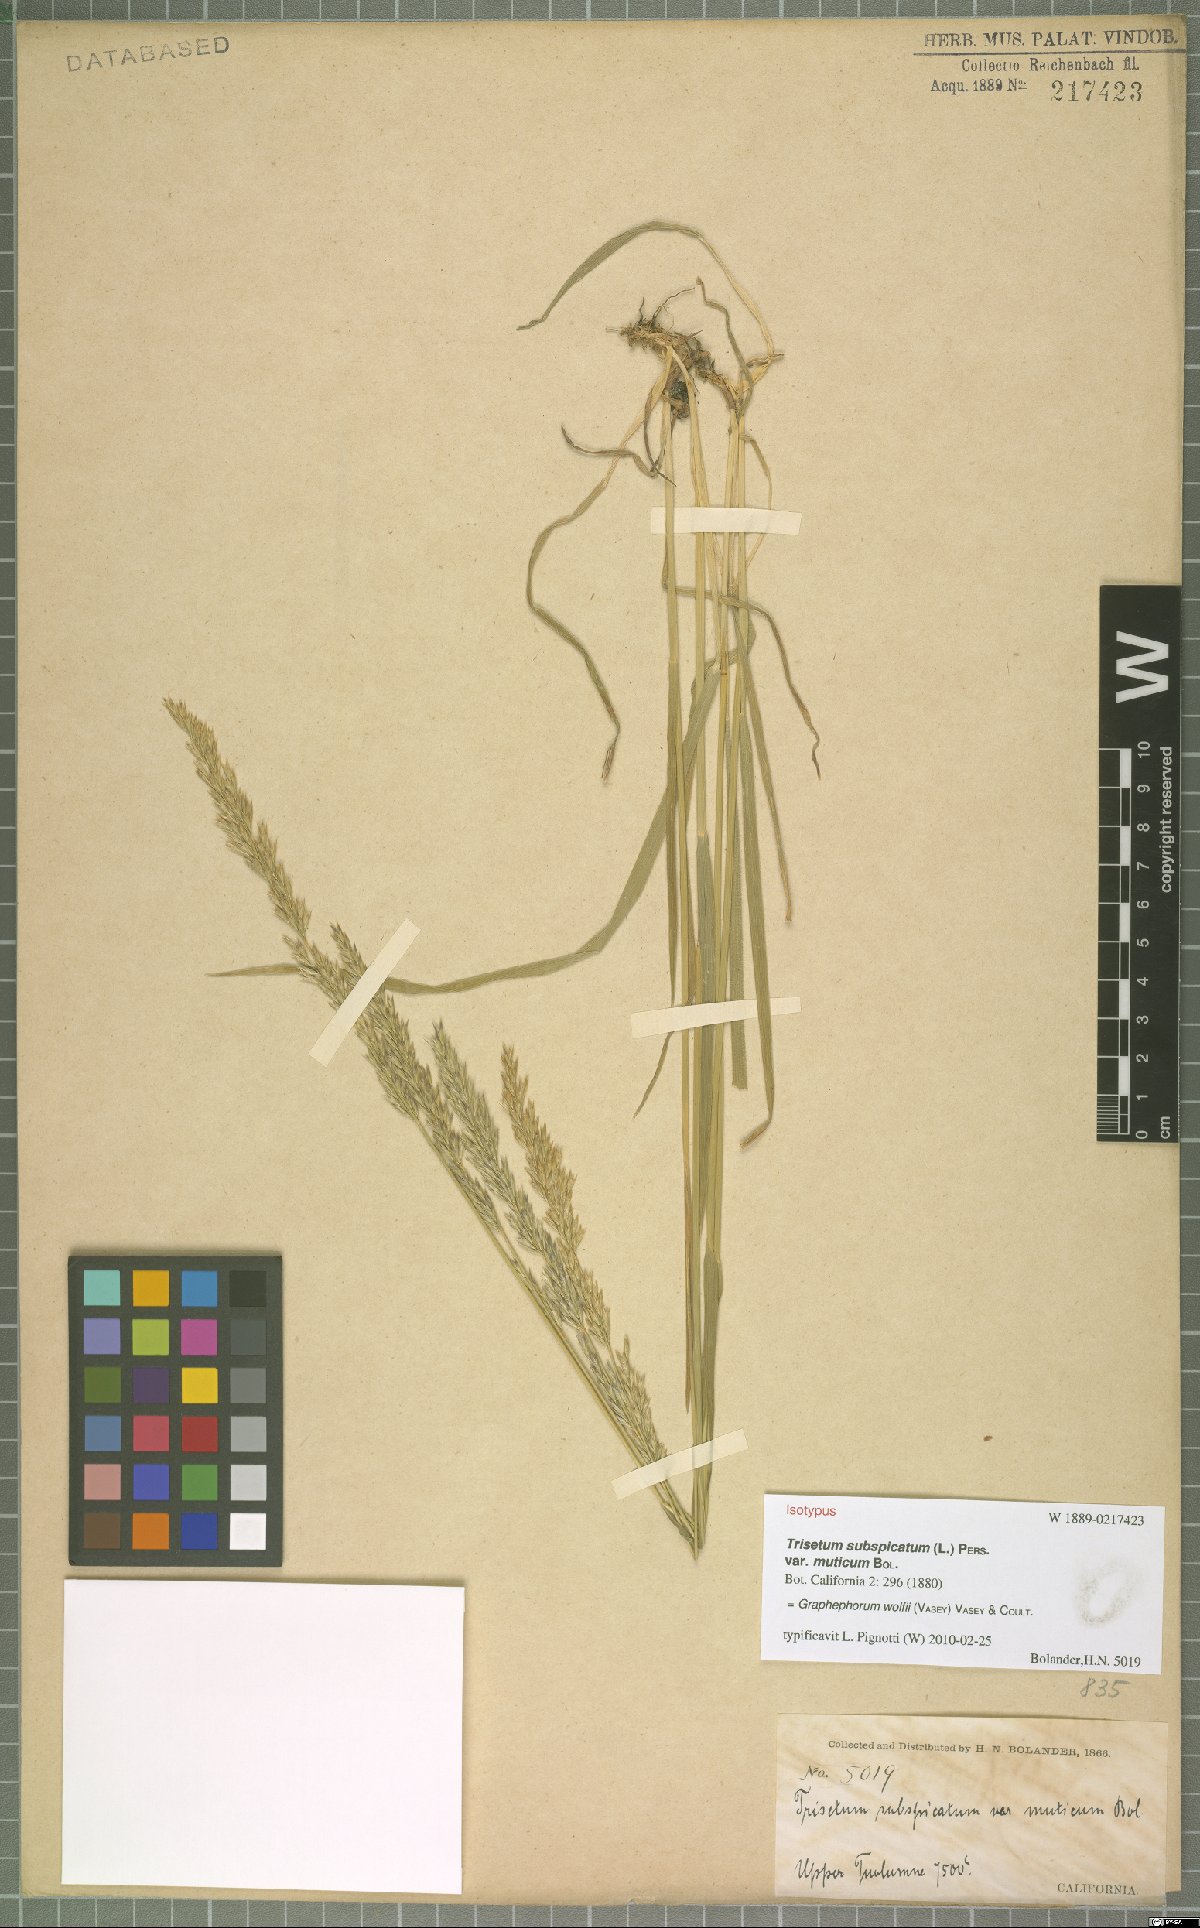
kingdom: Plantae
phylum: Tracheophyta
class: Liliopsida
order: Poales
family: Poaceae
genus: Graphephorum
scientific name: Graphephorum wolfii
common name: Wolf's trisetum
